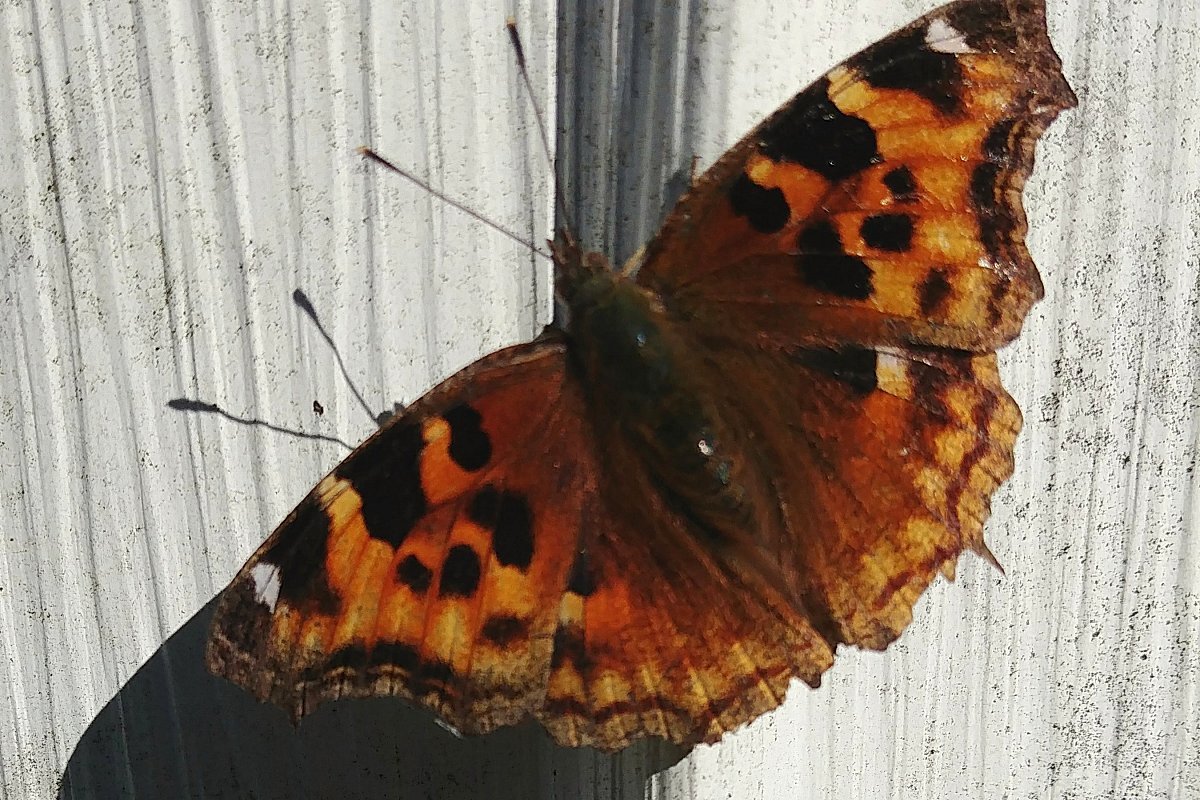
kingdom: Animalia
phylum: Arthropoda
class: Insecta
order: Lepidoptera
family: Nymphalidae
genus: Polygonia
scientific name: Polygonia vaualbum
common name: Compton Tortoiseshell
